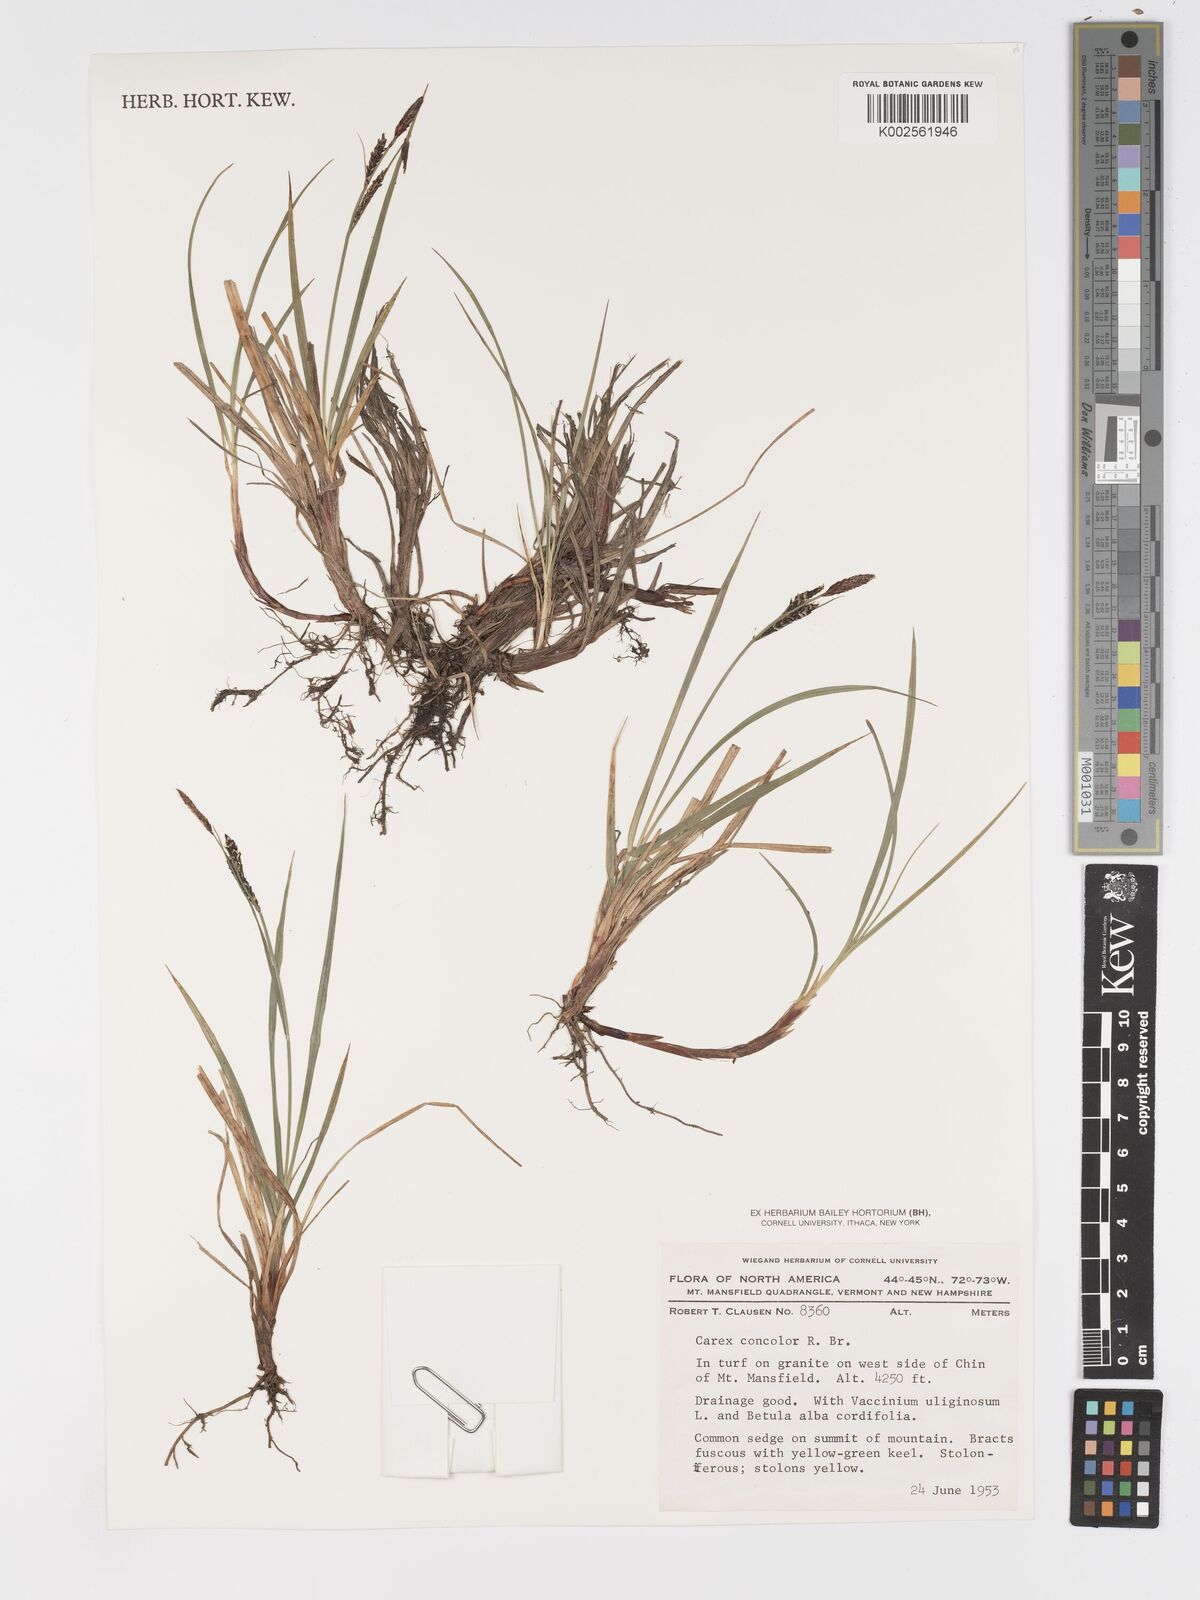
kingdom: Plantae
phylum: Tracheophyta
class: Liliopsida
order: Poales
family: Cyperaceae
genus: Carex
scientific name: Carex bigelowii
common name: Stiff sedge
